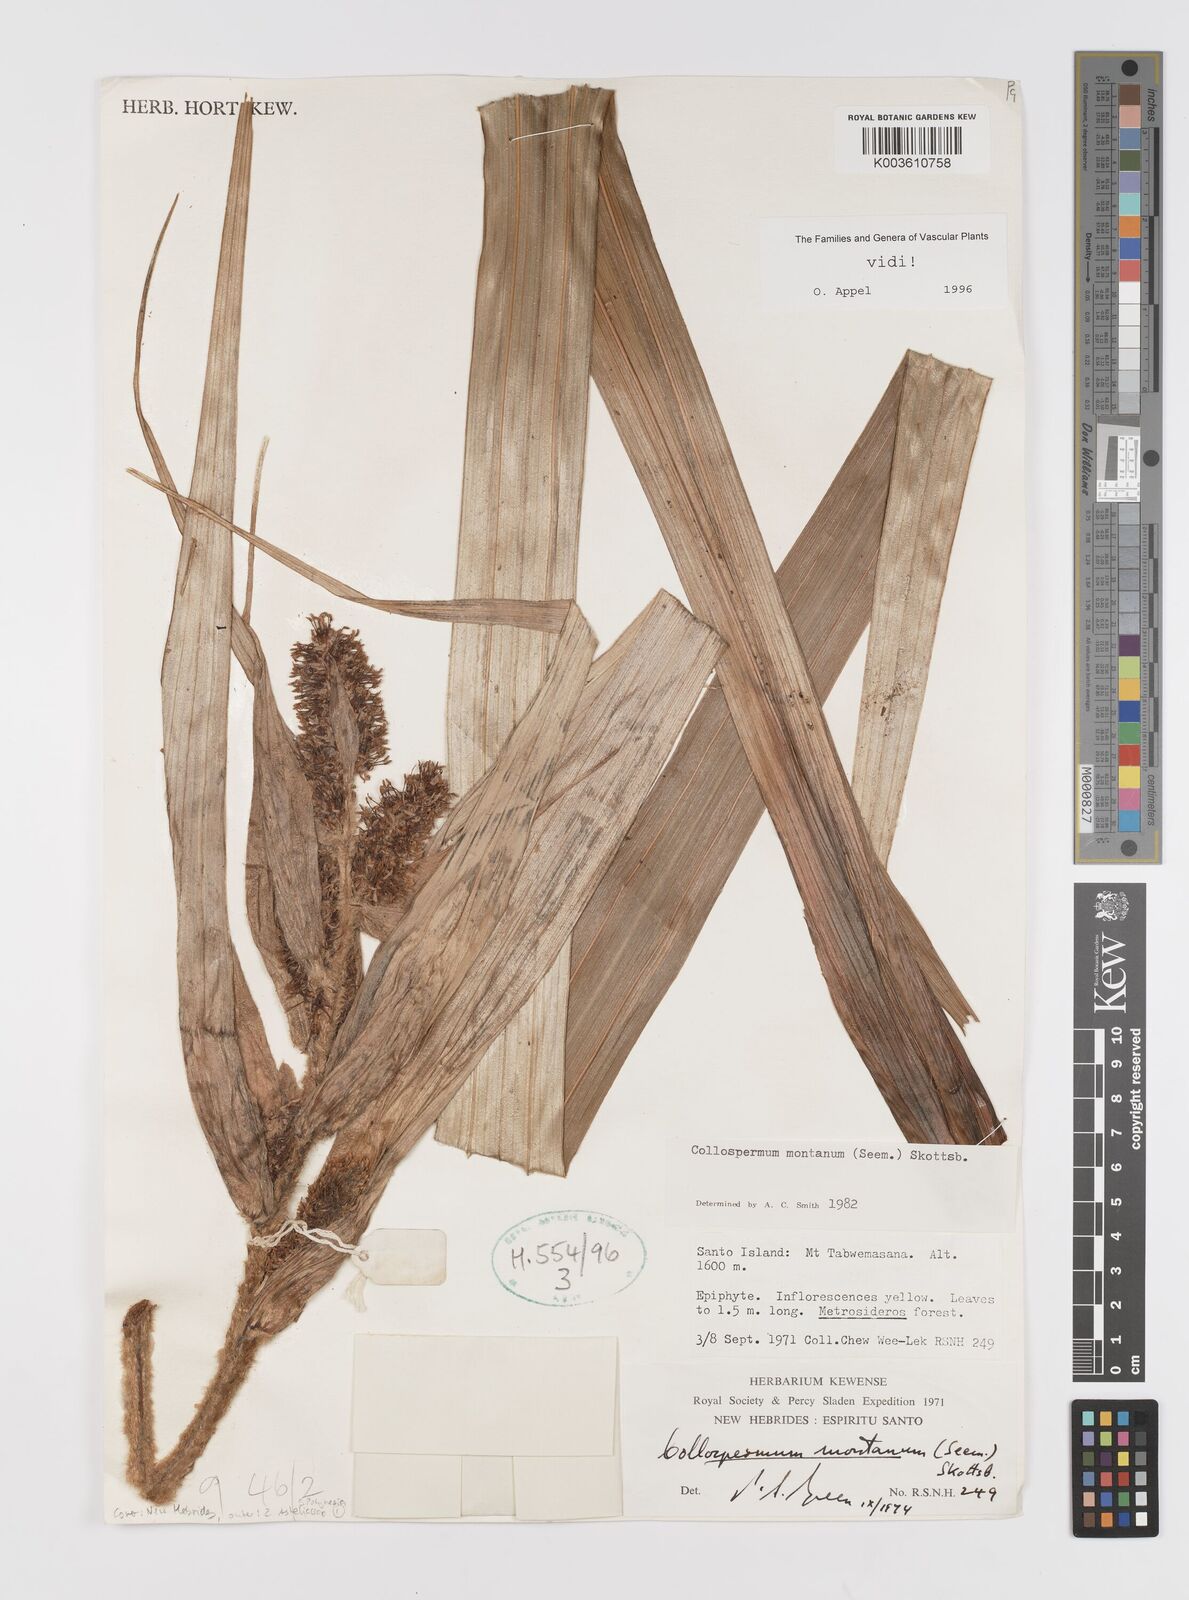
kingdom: Plantae
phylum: Tracheophyta
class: Liliopsida
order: Asparagales
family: Asteliaceae
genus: Astelia
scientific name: Astelia montana
